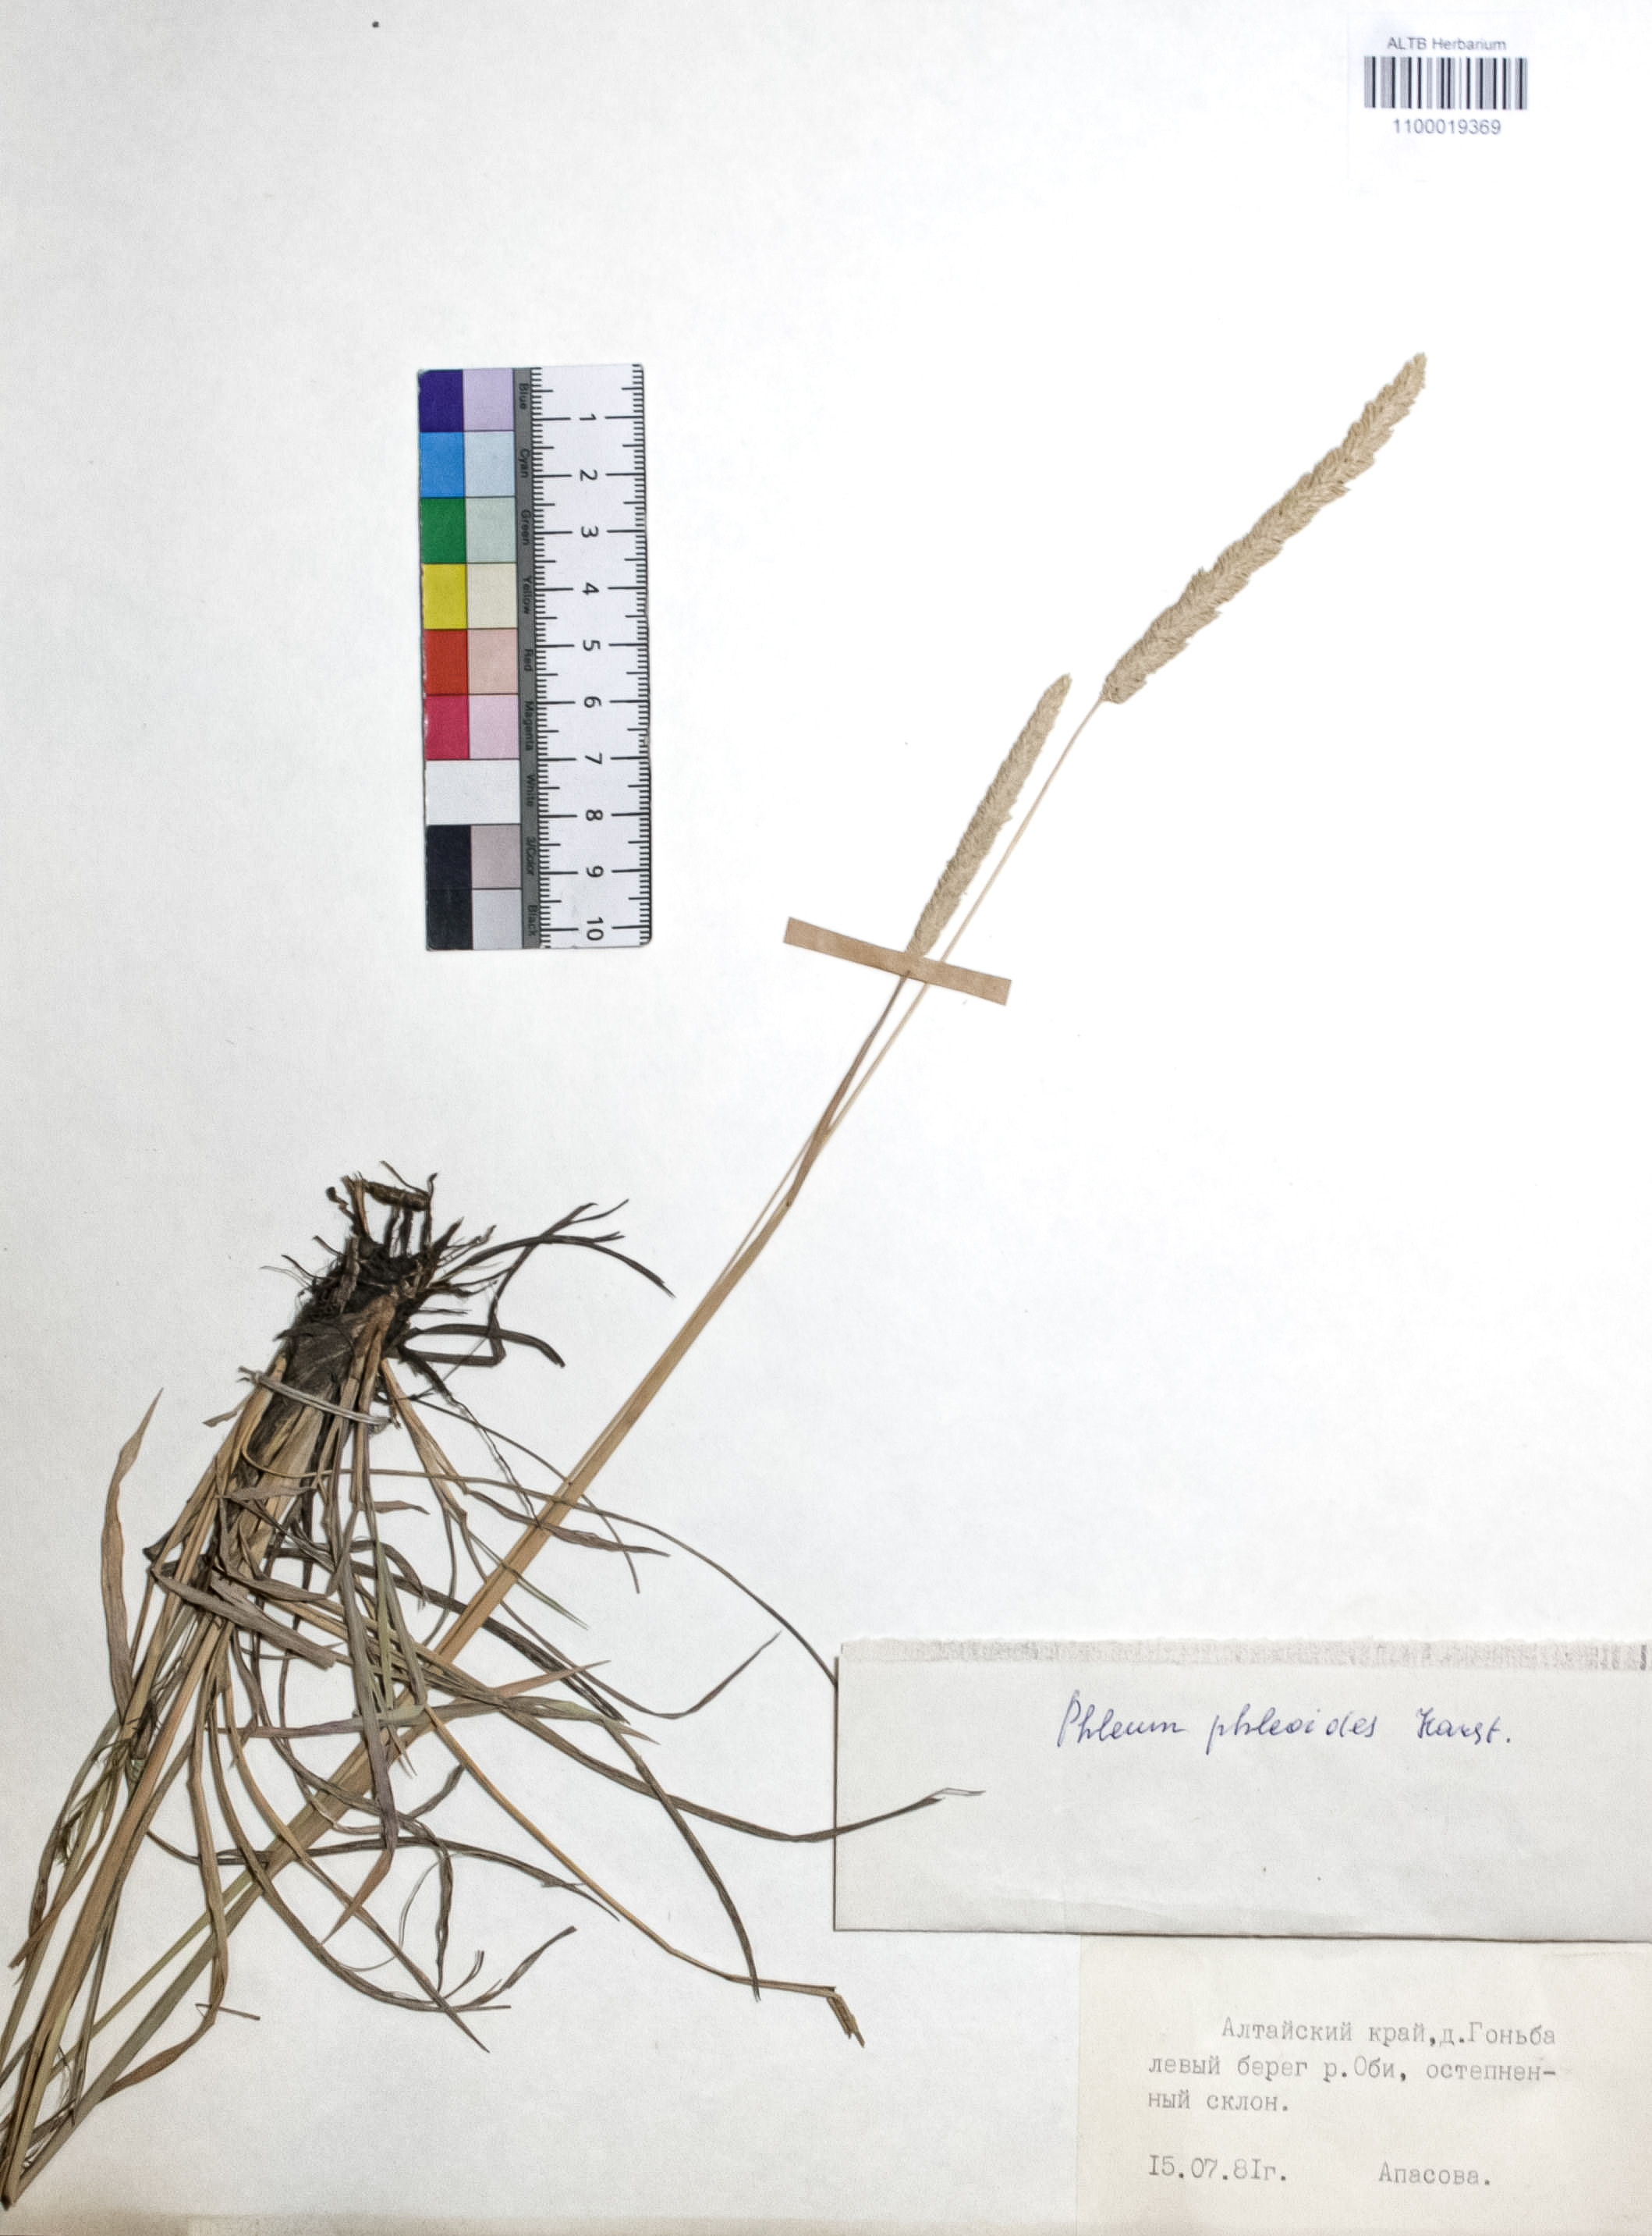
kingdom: Plantae
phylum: Tracheophyta
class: Liliopsida
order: Poales
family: Poaceae
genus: Phleum
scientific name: Phleum phleoides
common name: Purple-stem cat's-tail
